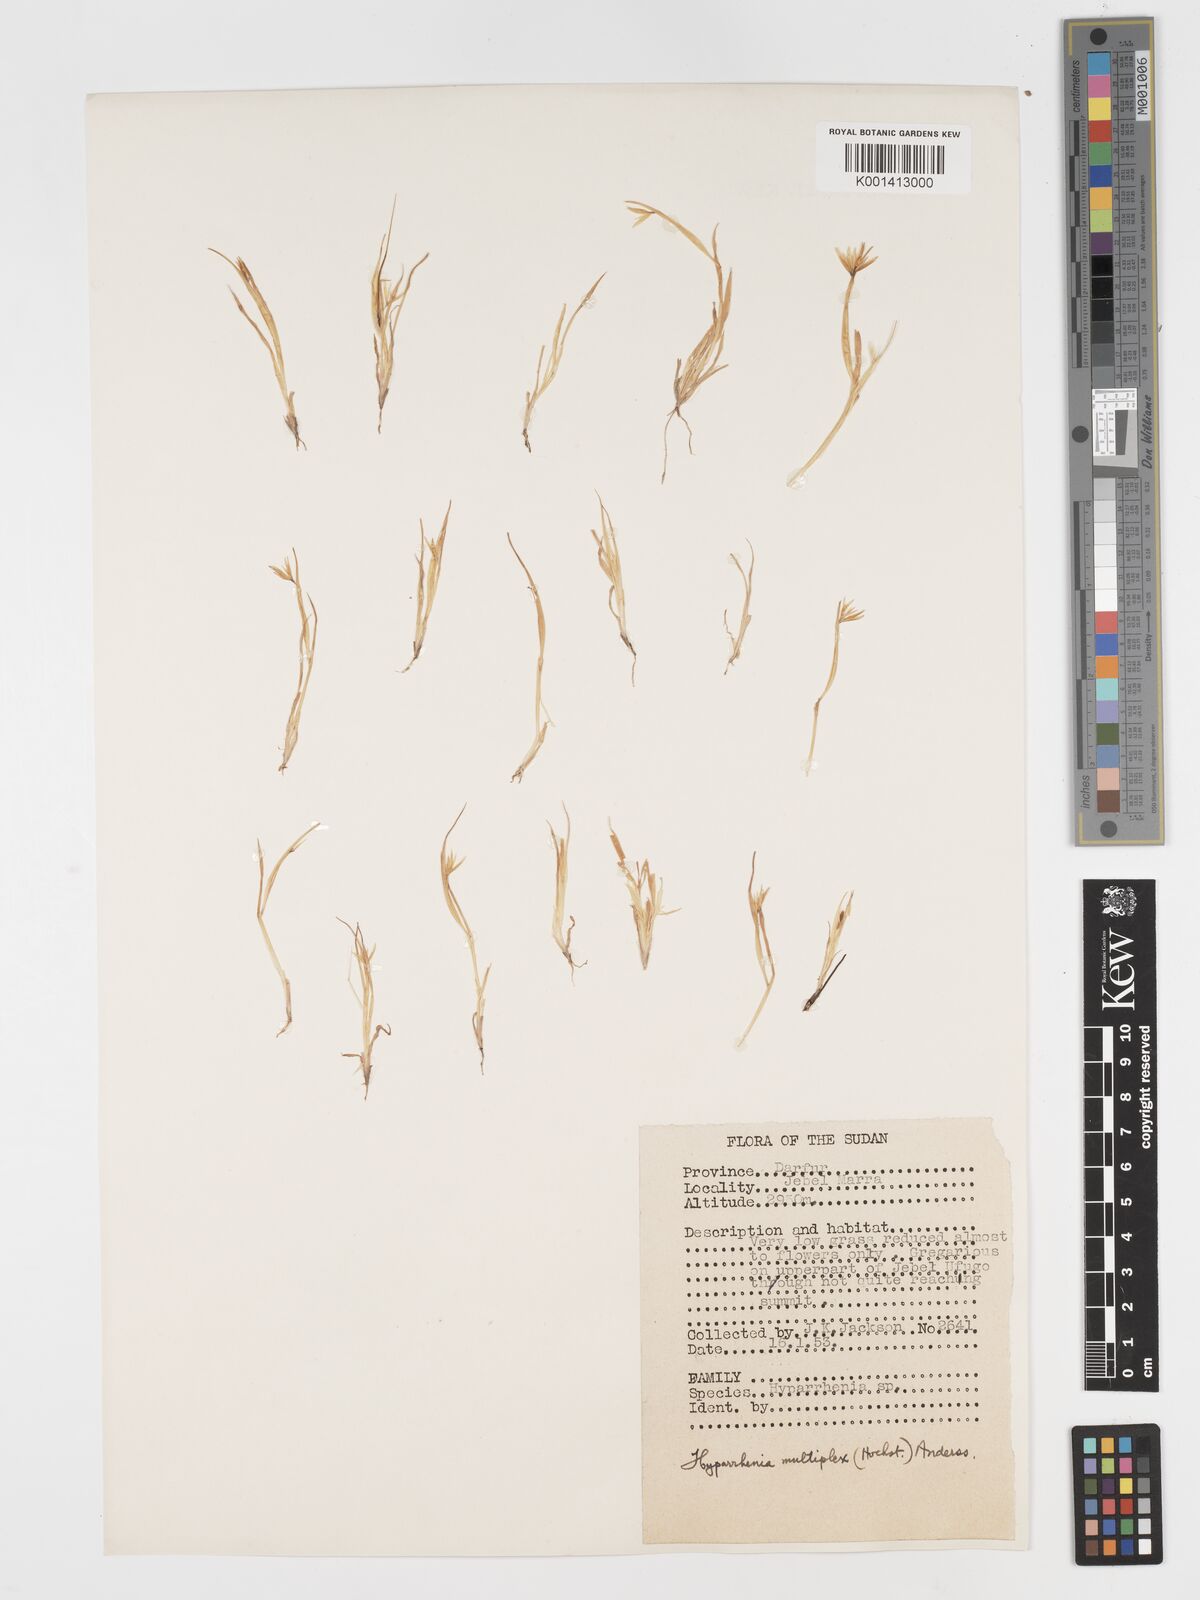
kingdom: Plantae
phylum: Tracheophyta
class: Liliopsida
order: Poales
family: Poaceae
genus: Hyparrhenia
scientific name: Hyparrhenia multiplex
